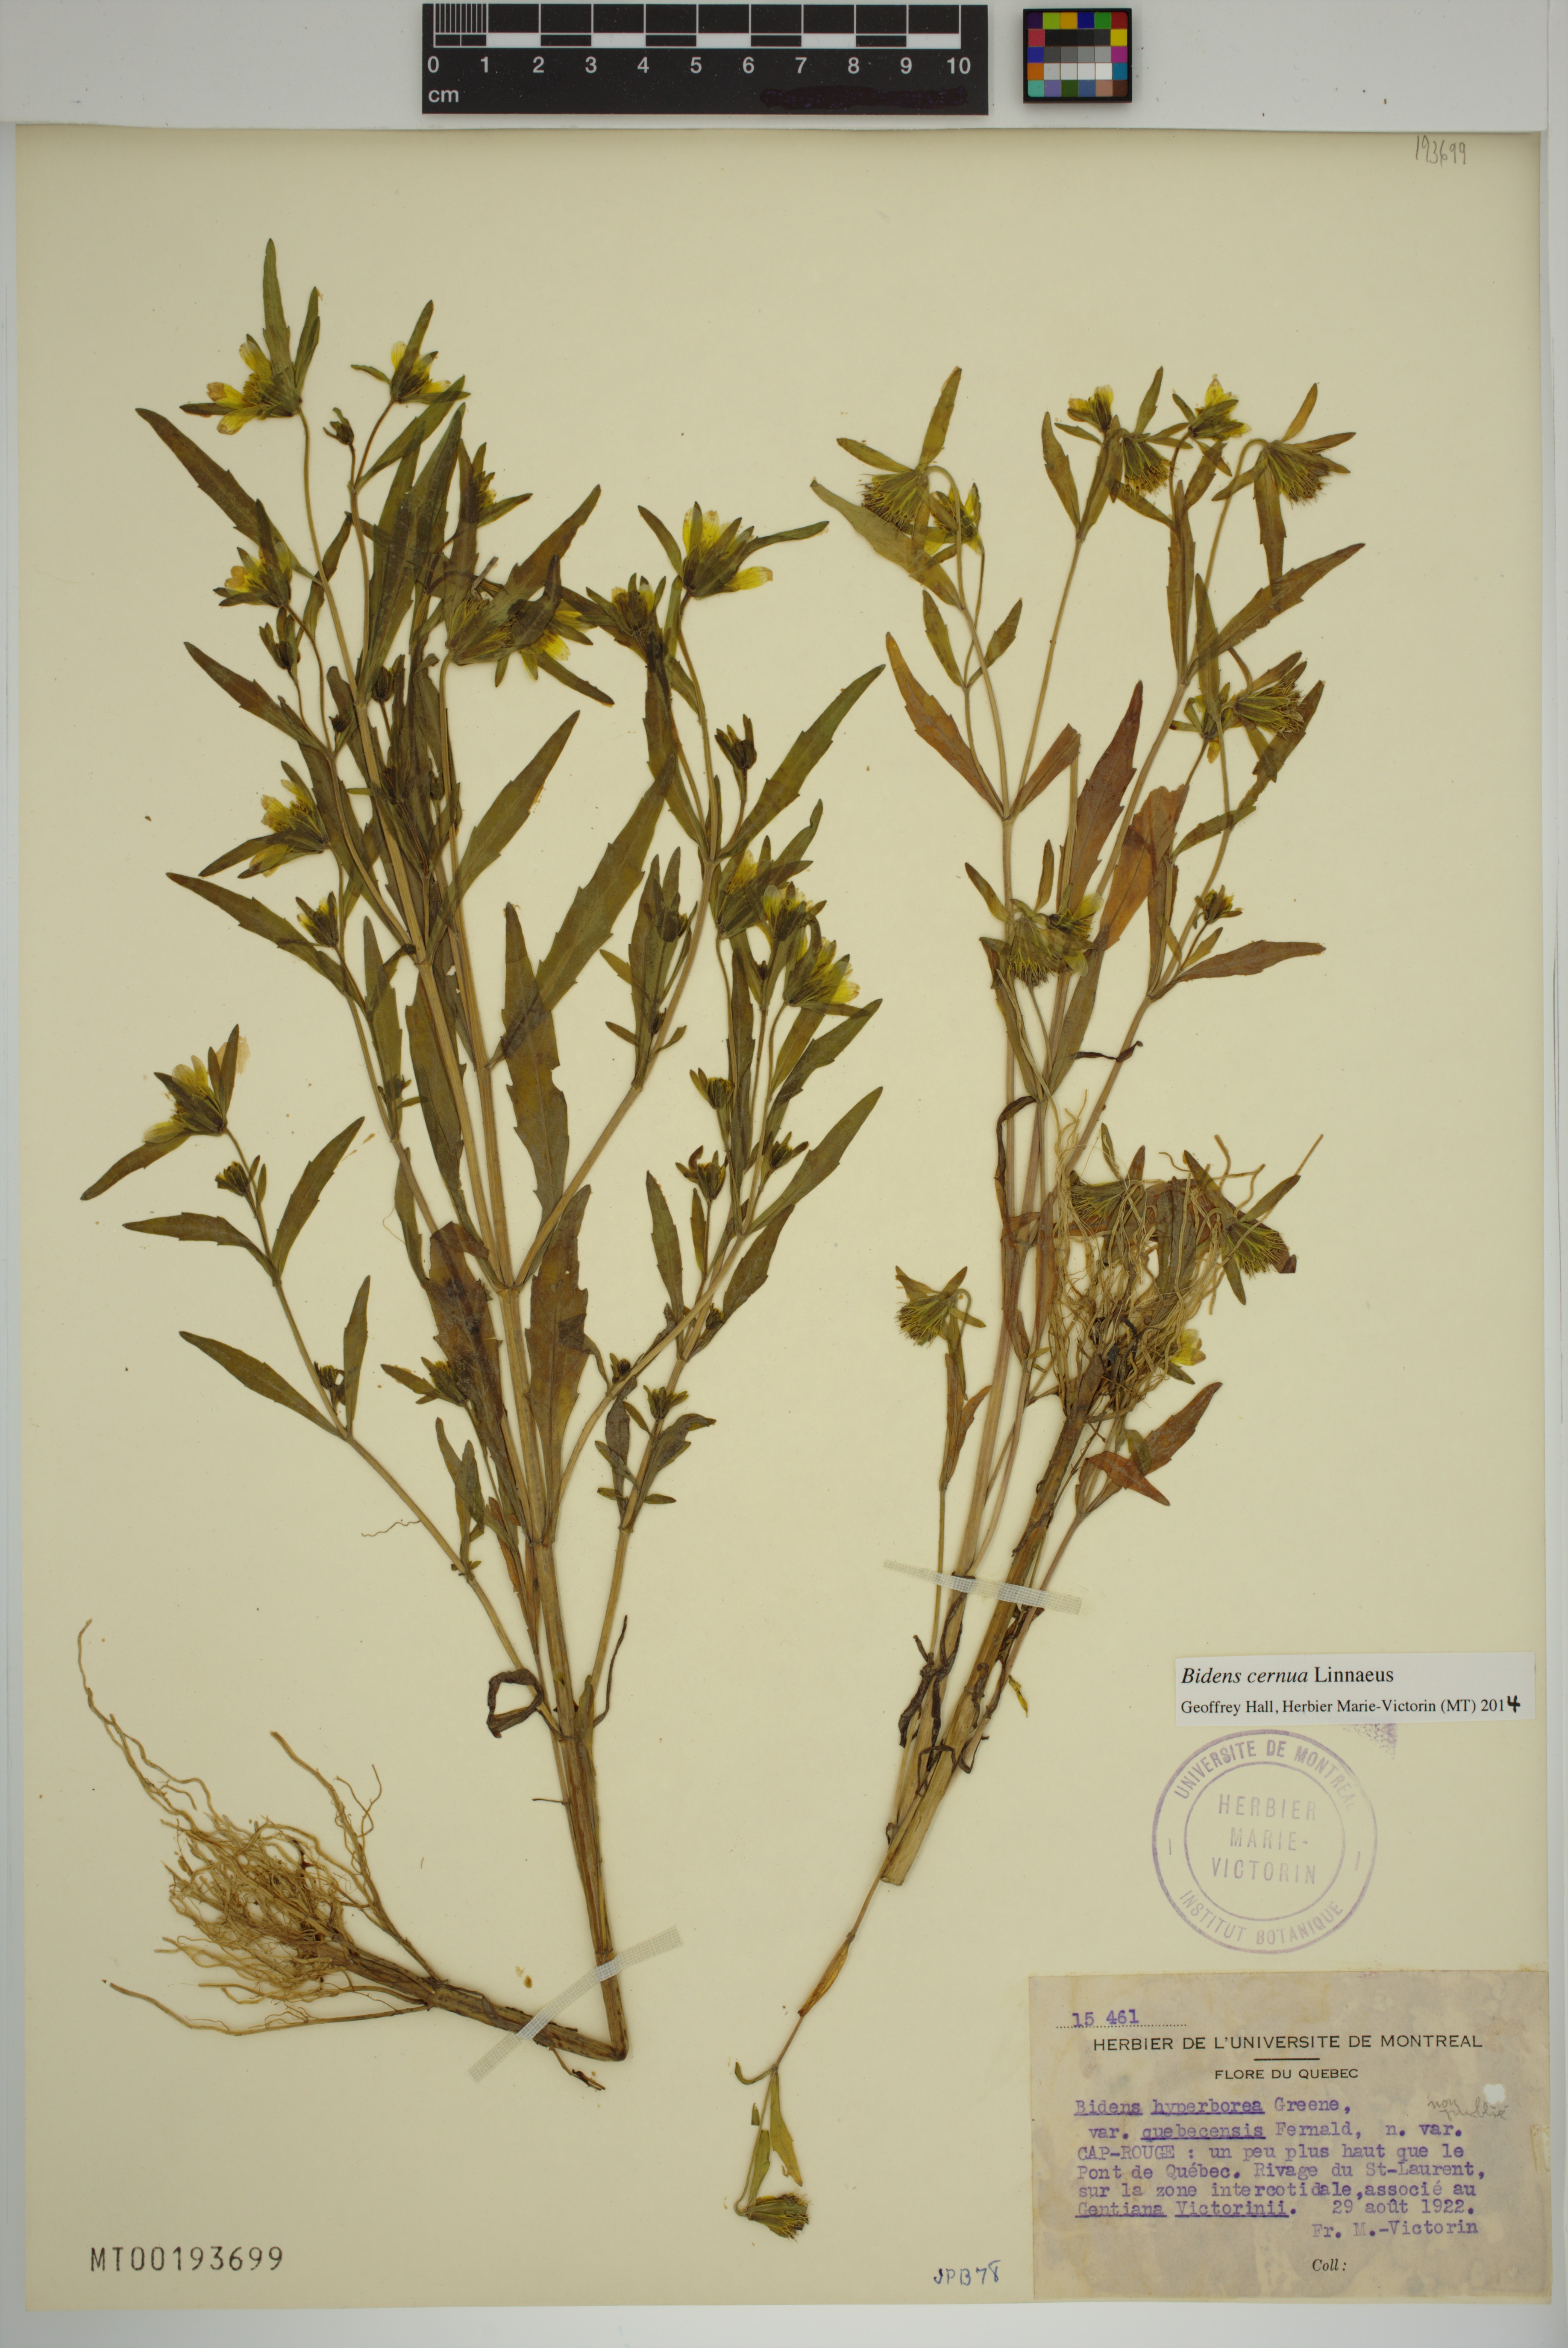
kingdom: Plantae
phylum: Tracheophyta
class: Magnoliopsida
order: Asterales
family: Asteraceae
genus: Bidens
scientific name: Bidens cernua
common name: Nodding bur-marigold
